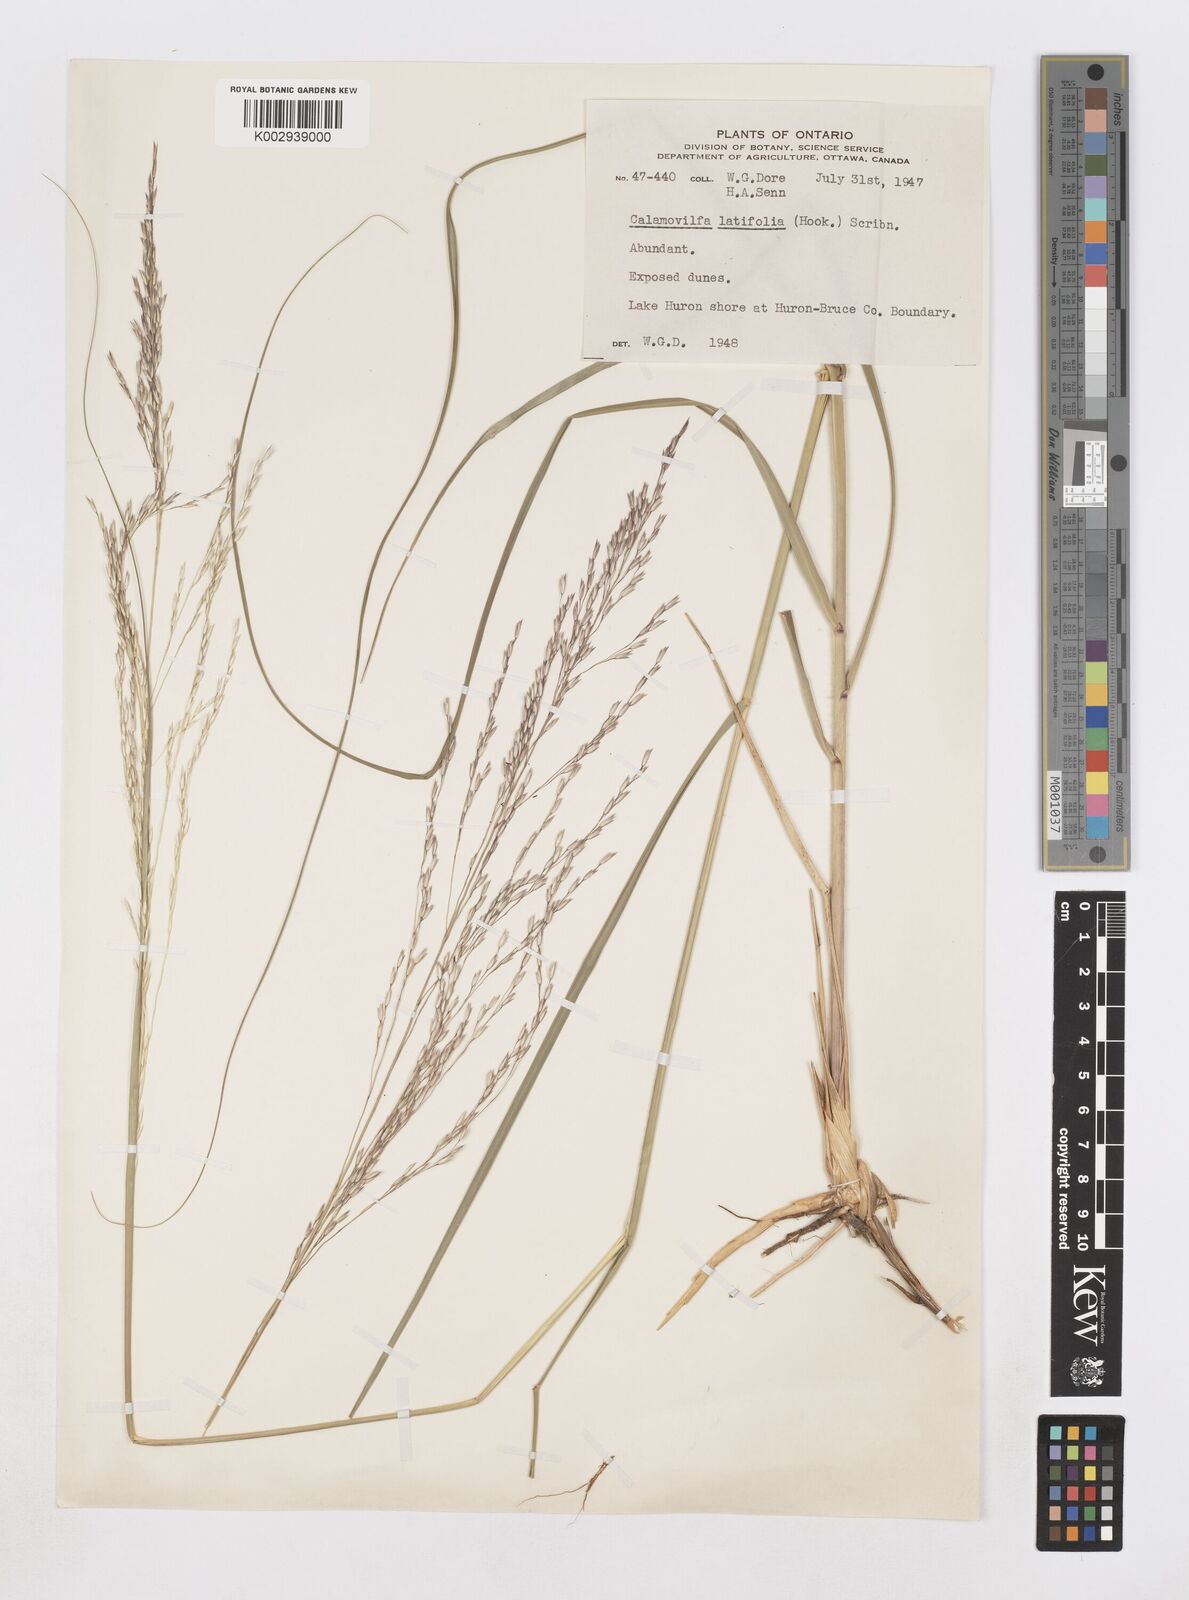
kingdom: Plantae
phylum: Tracheophyta
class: Liliopsida
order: Poales
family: Poaceae
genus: Sporobolus
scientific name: Sporobolus rigidus
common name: Prairie sandreed
